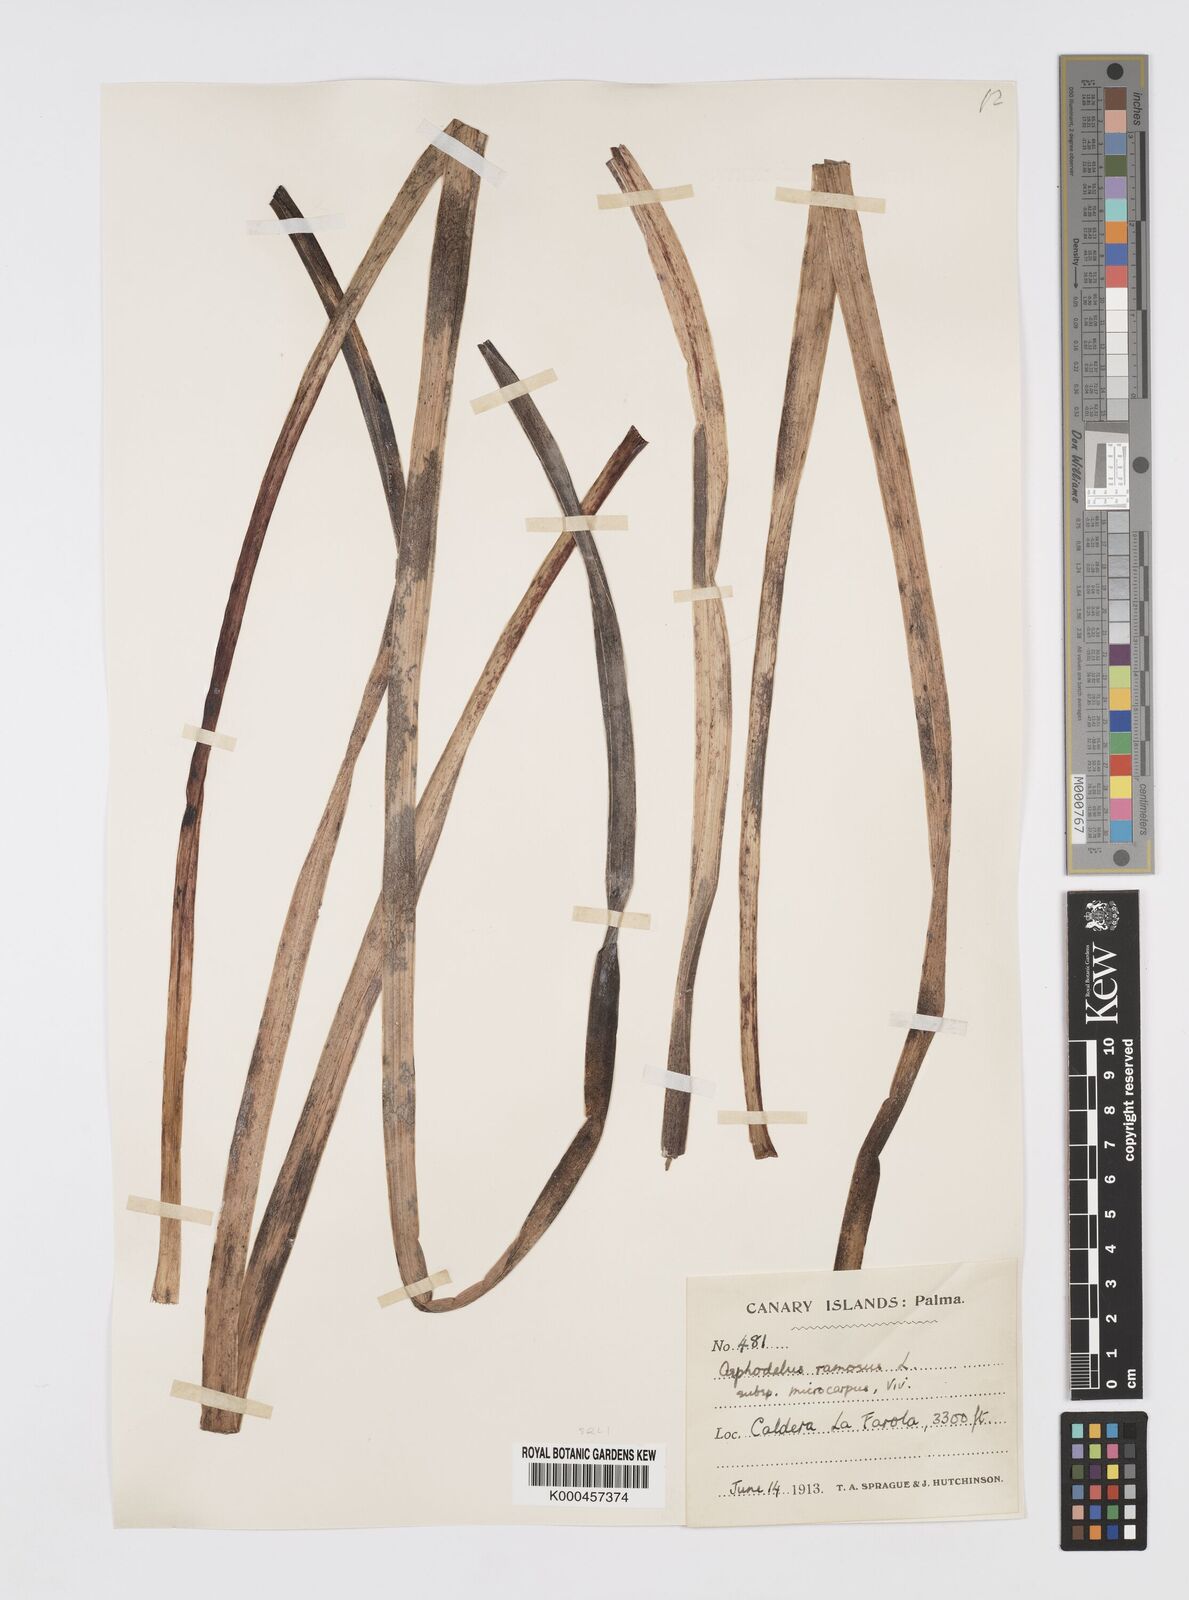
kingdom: Plantae
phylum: Tracheophyta
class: Liliopsida
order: Asparagales
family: Asphodelaceae
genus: Asphodelus
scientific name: Asphodelus aestivus
